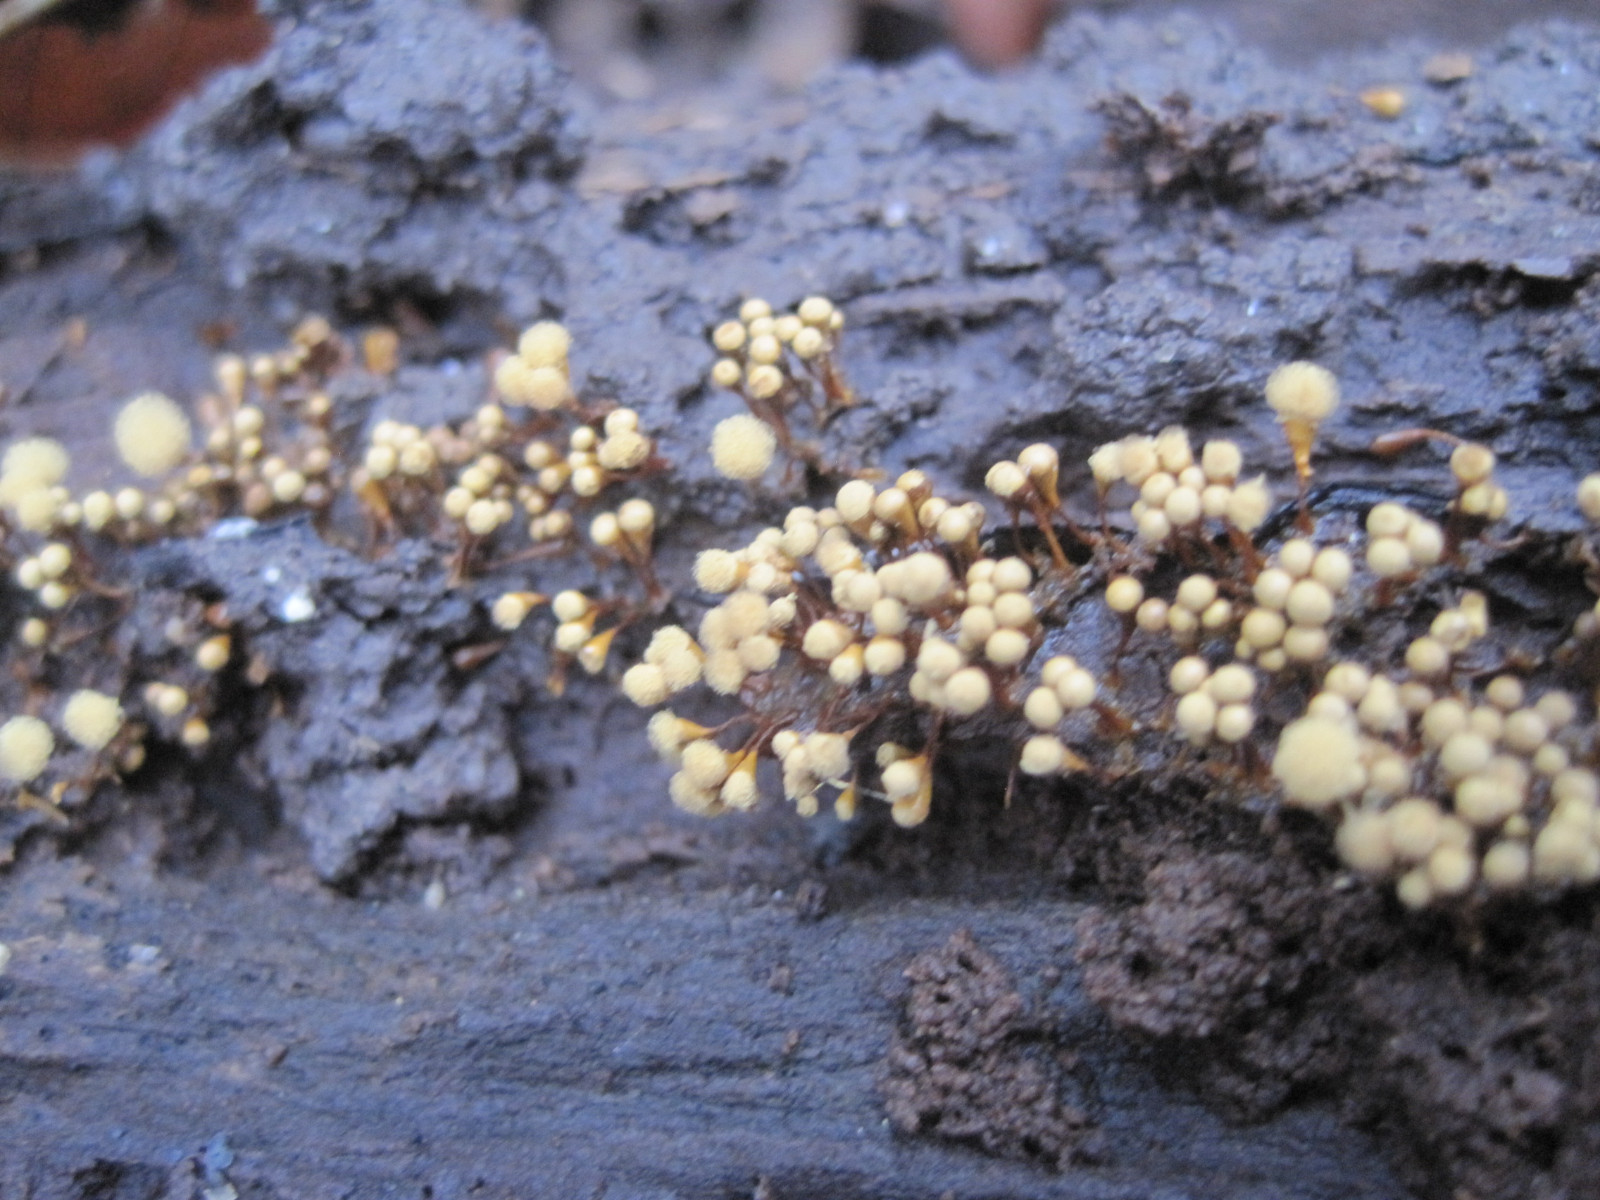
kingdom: Protozoa
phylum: Mycetozoa
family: Trichiidae
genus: Hemitrichia
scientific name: Hemitrichia
